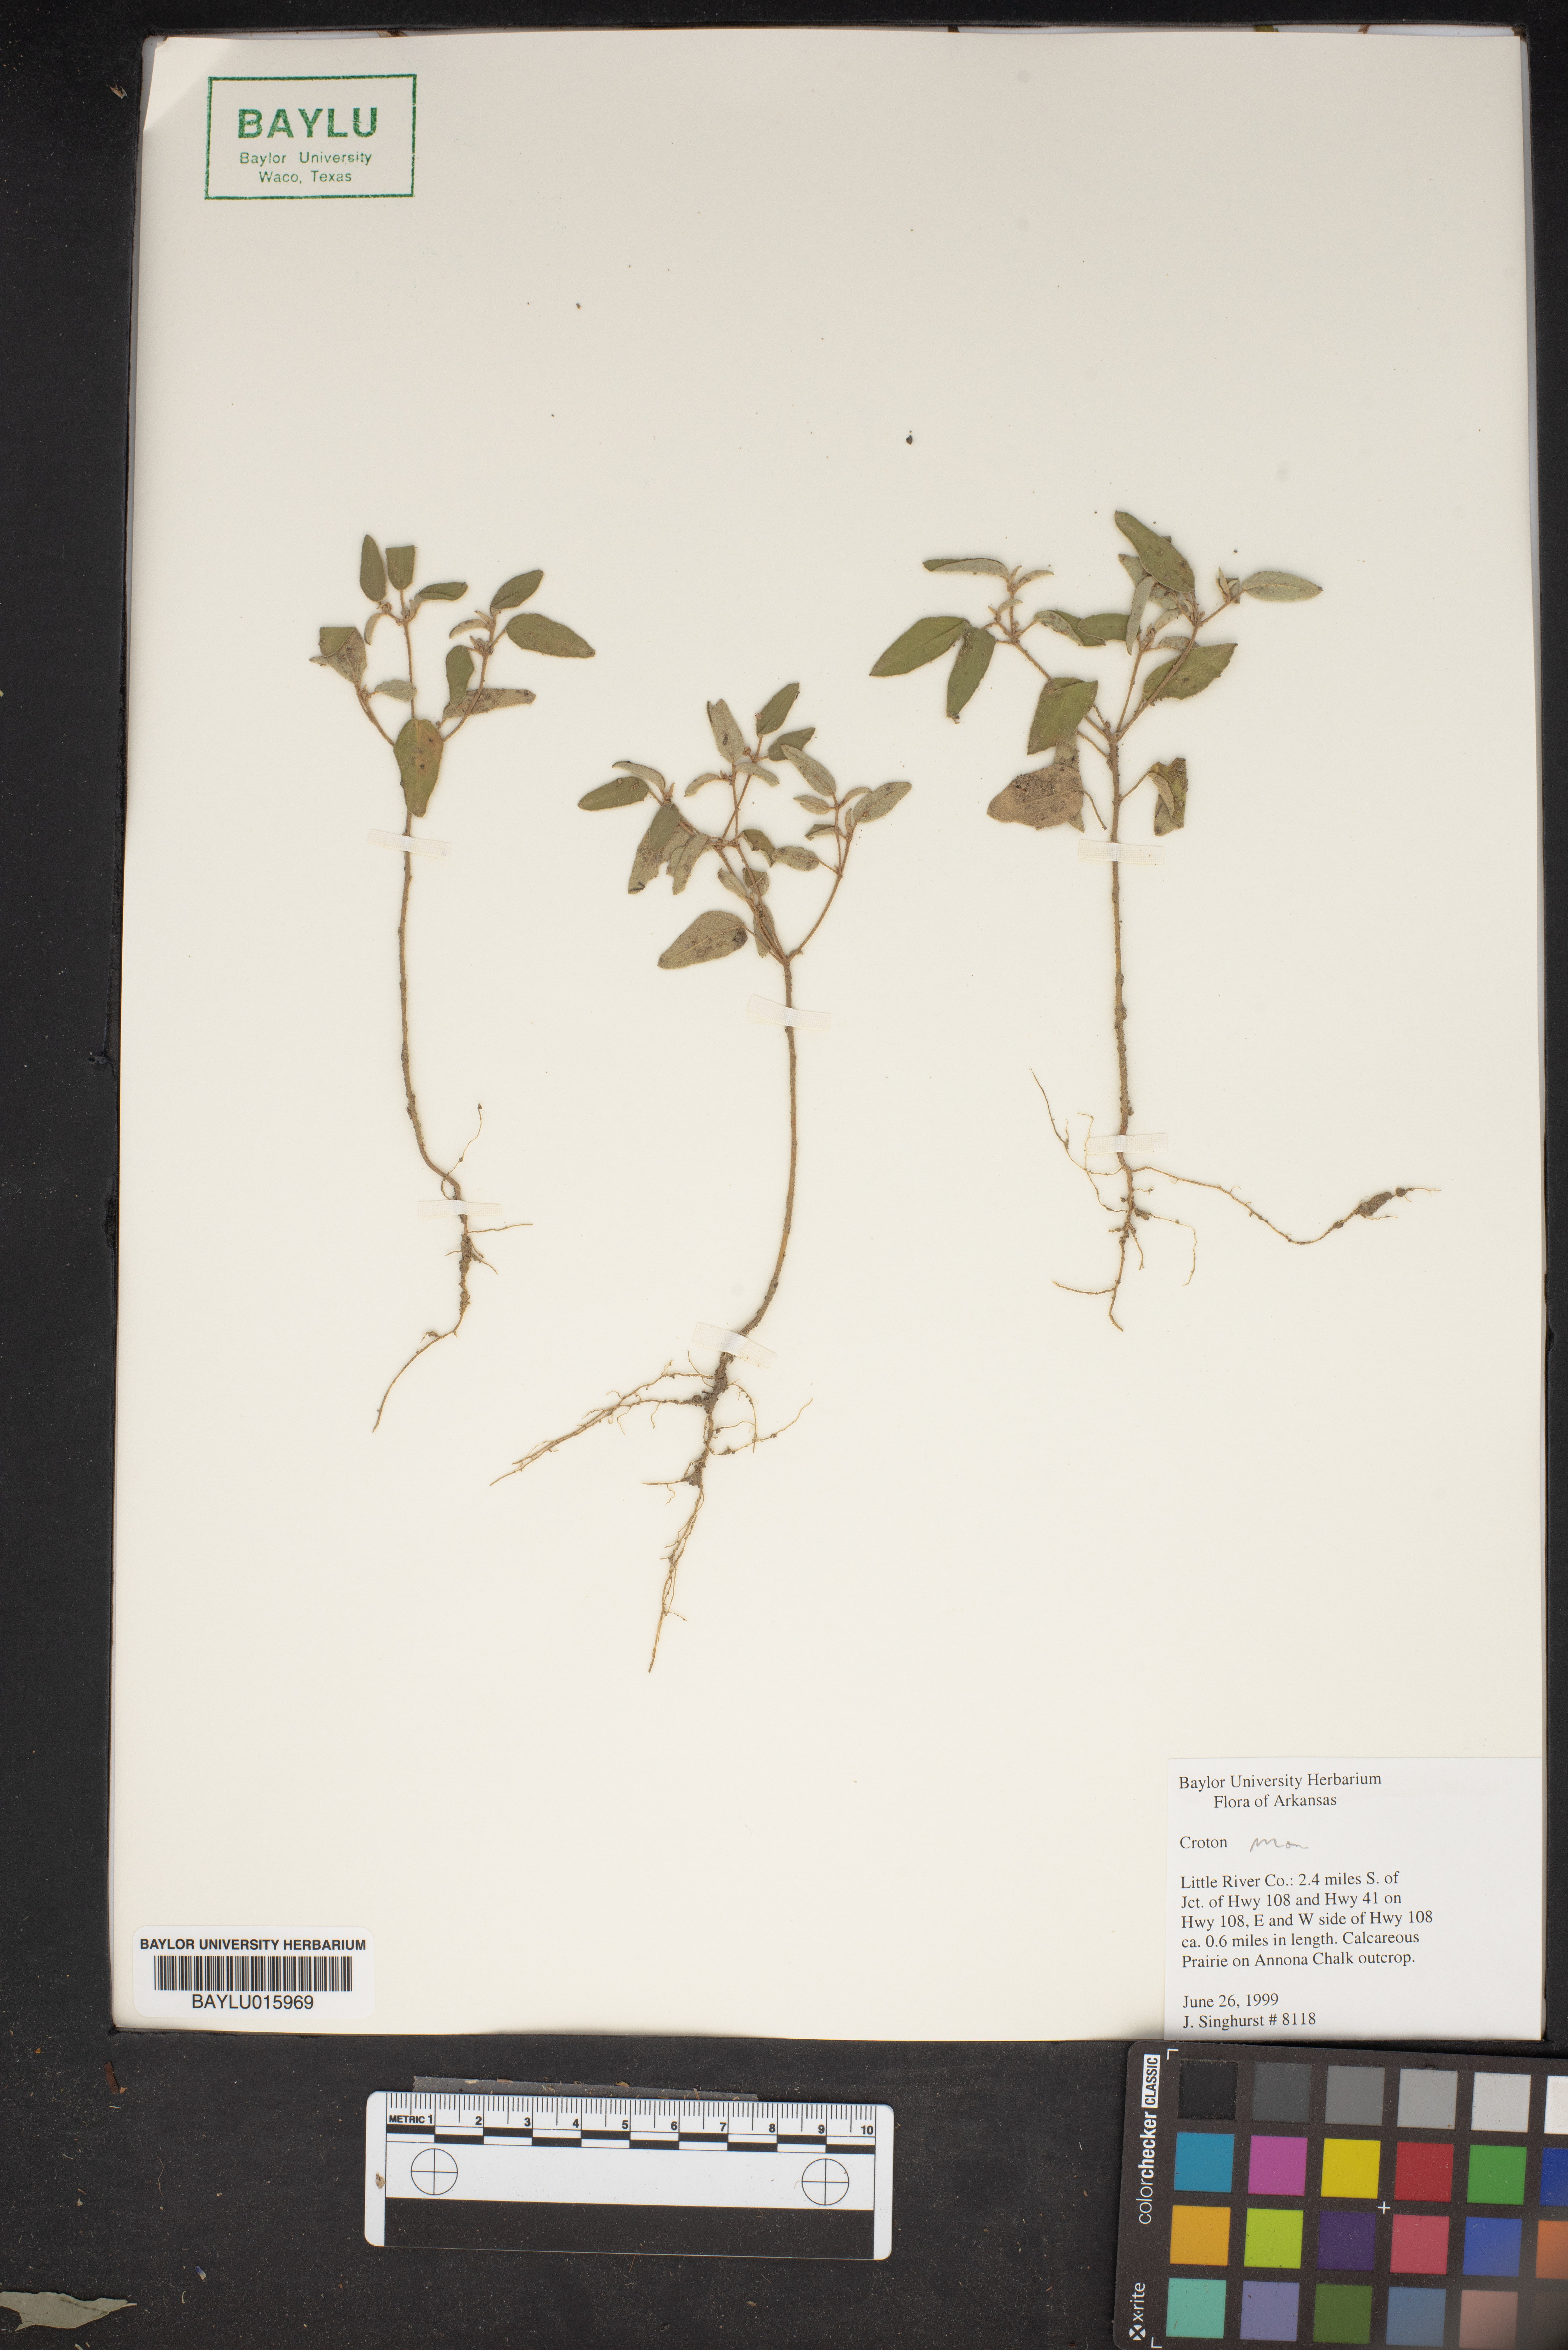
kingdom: Plantae
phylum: Tracheophyta
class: Magnoliopsida
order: Malpighiales
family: Euphorbiaceae
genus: Croton
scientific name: Croton
